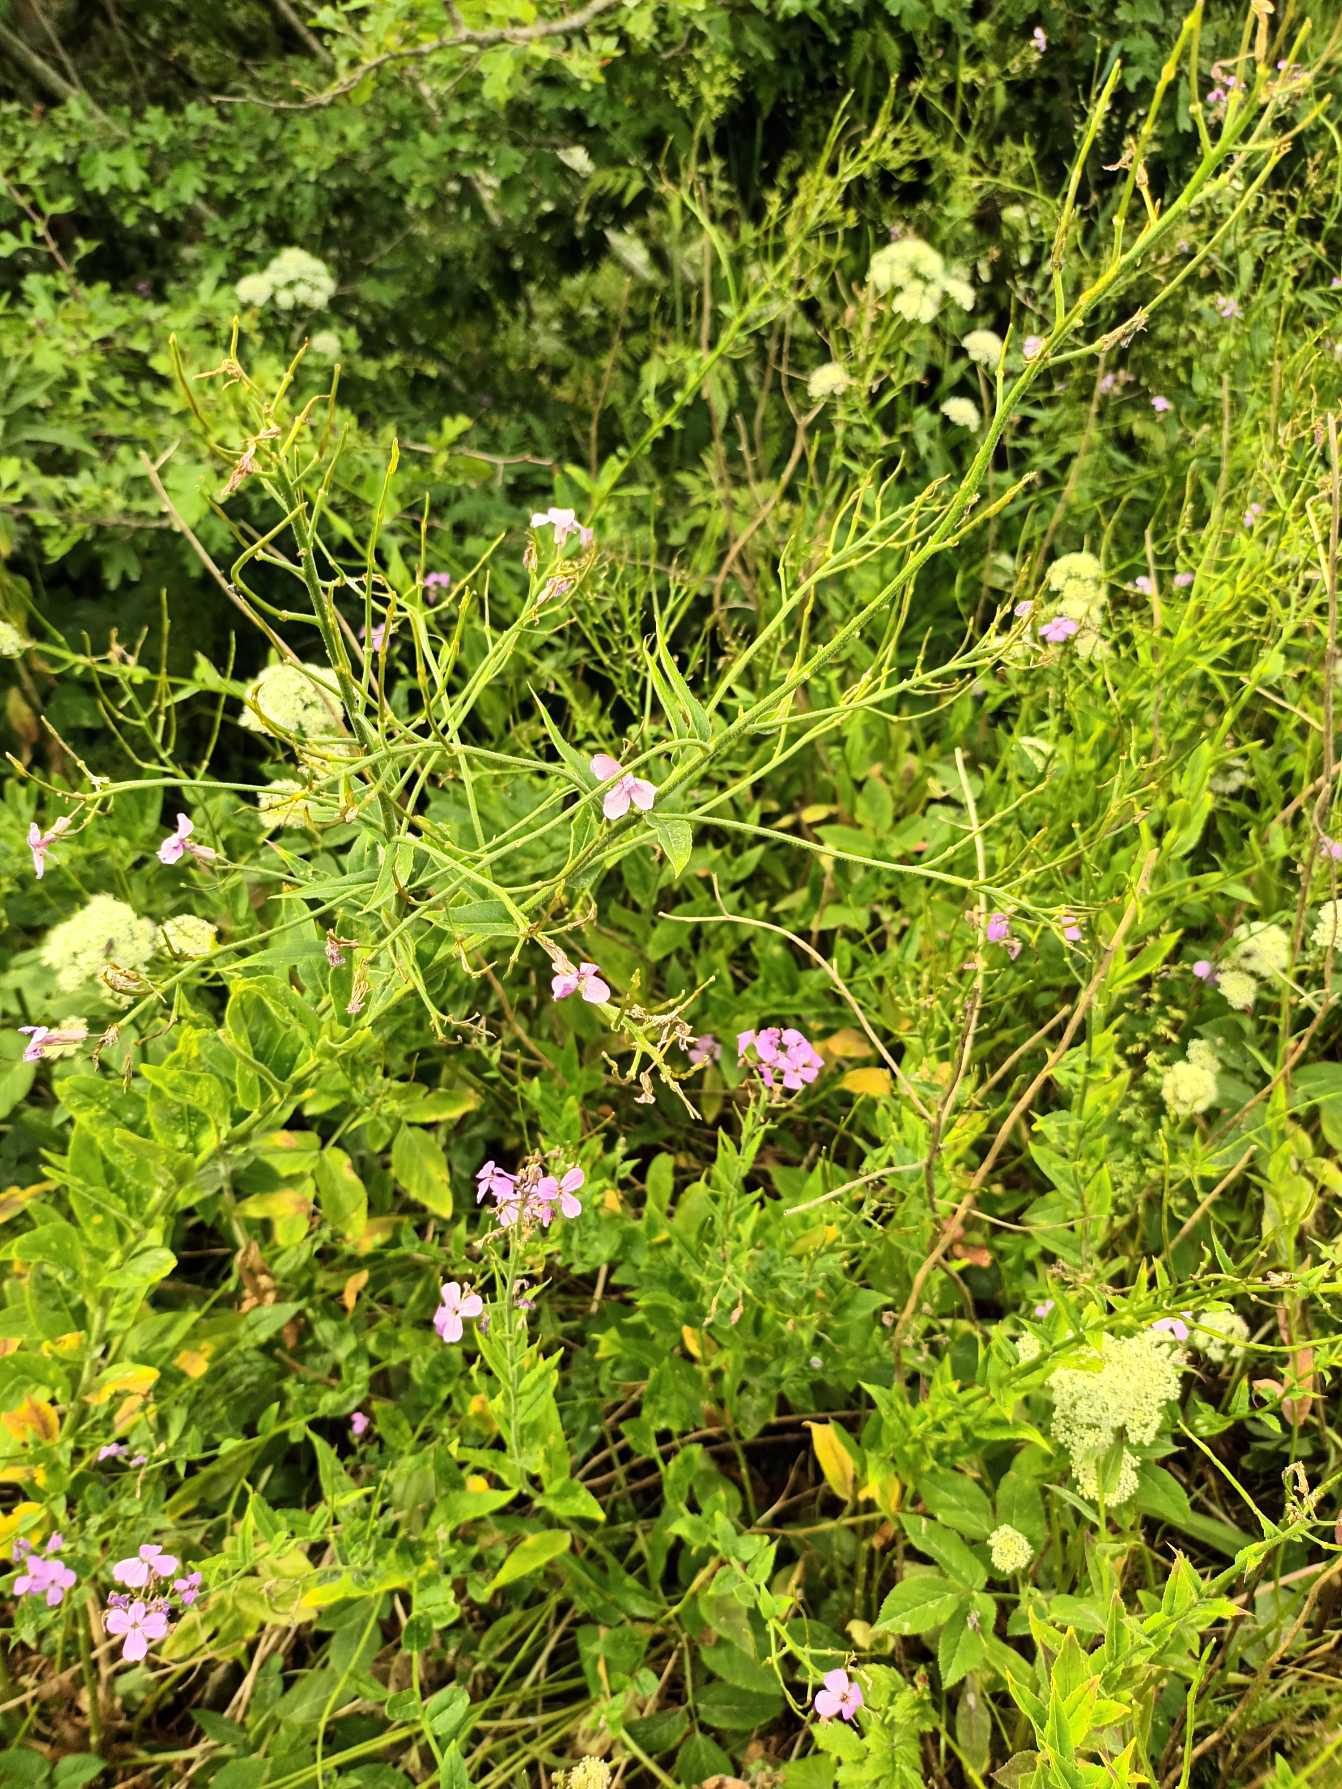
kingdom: Plantae
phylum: Tracheophyta
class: Magnoliopsida
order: Brassicales
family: Brassicaceae
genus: Hesperis
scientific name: Hesperis matronalis
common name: Aftenstjerne
